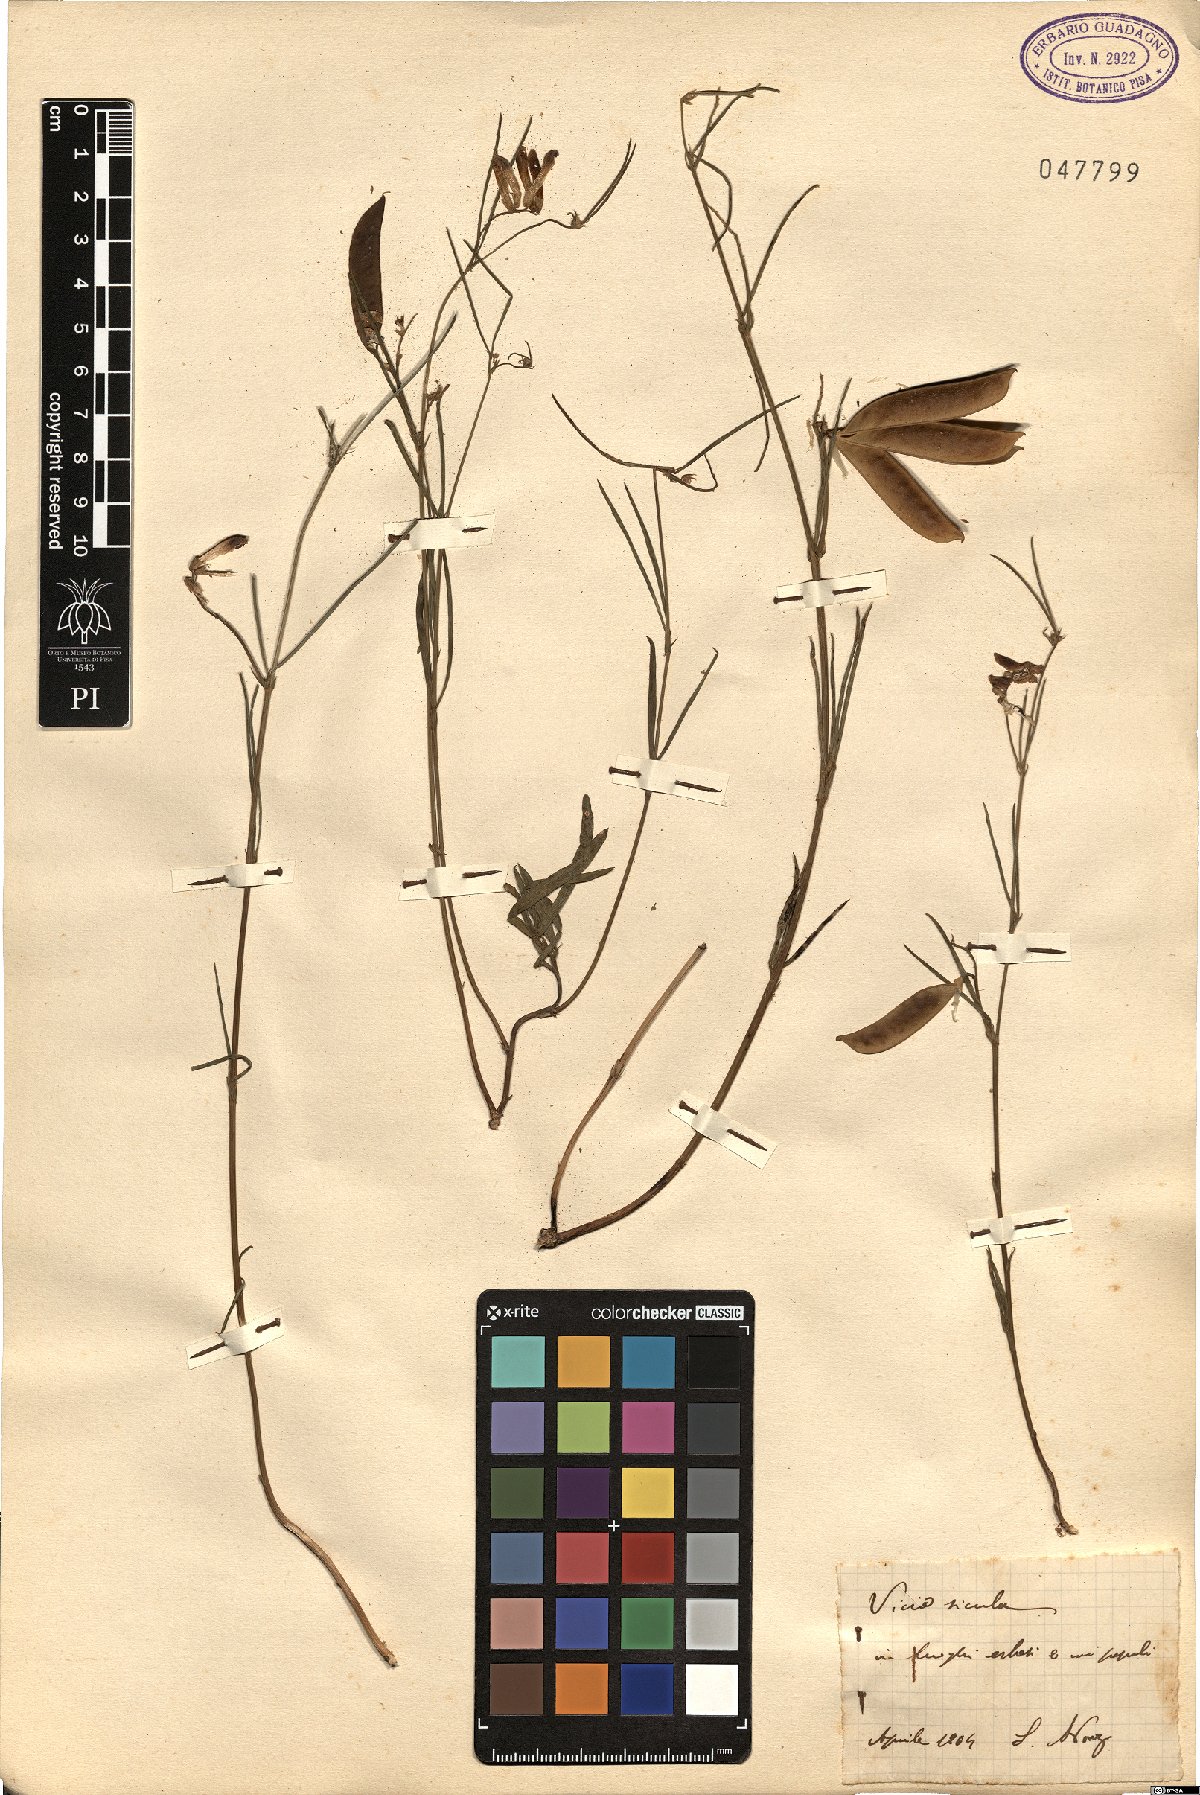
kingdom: Plantae
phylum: Tracheophyta
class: Magnoliopsida
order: Fabales
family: Fabaceae
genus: Vicia
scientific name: Vicia sicula
